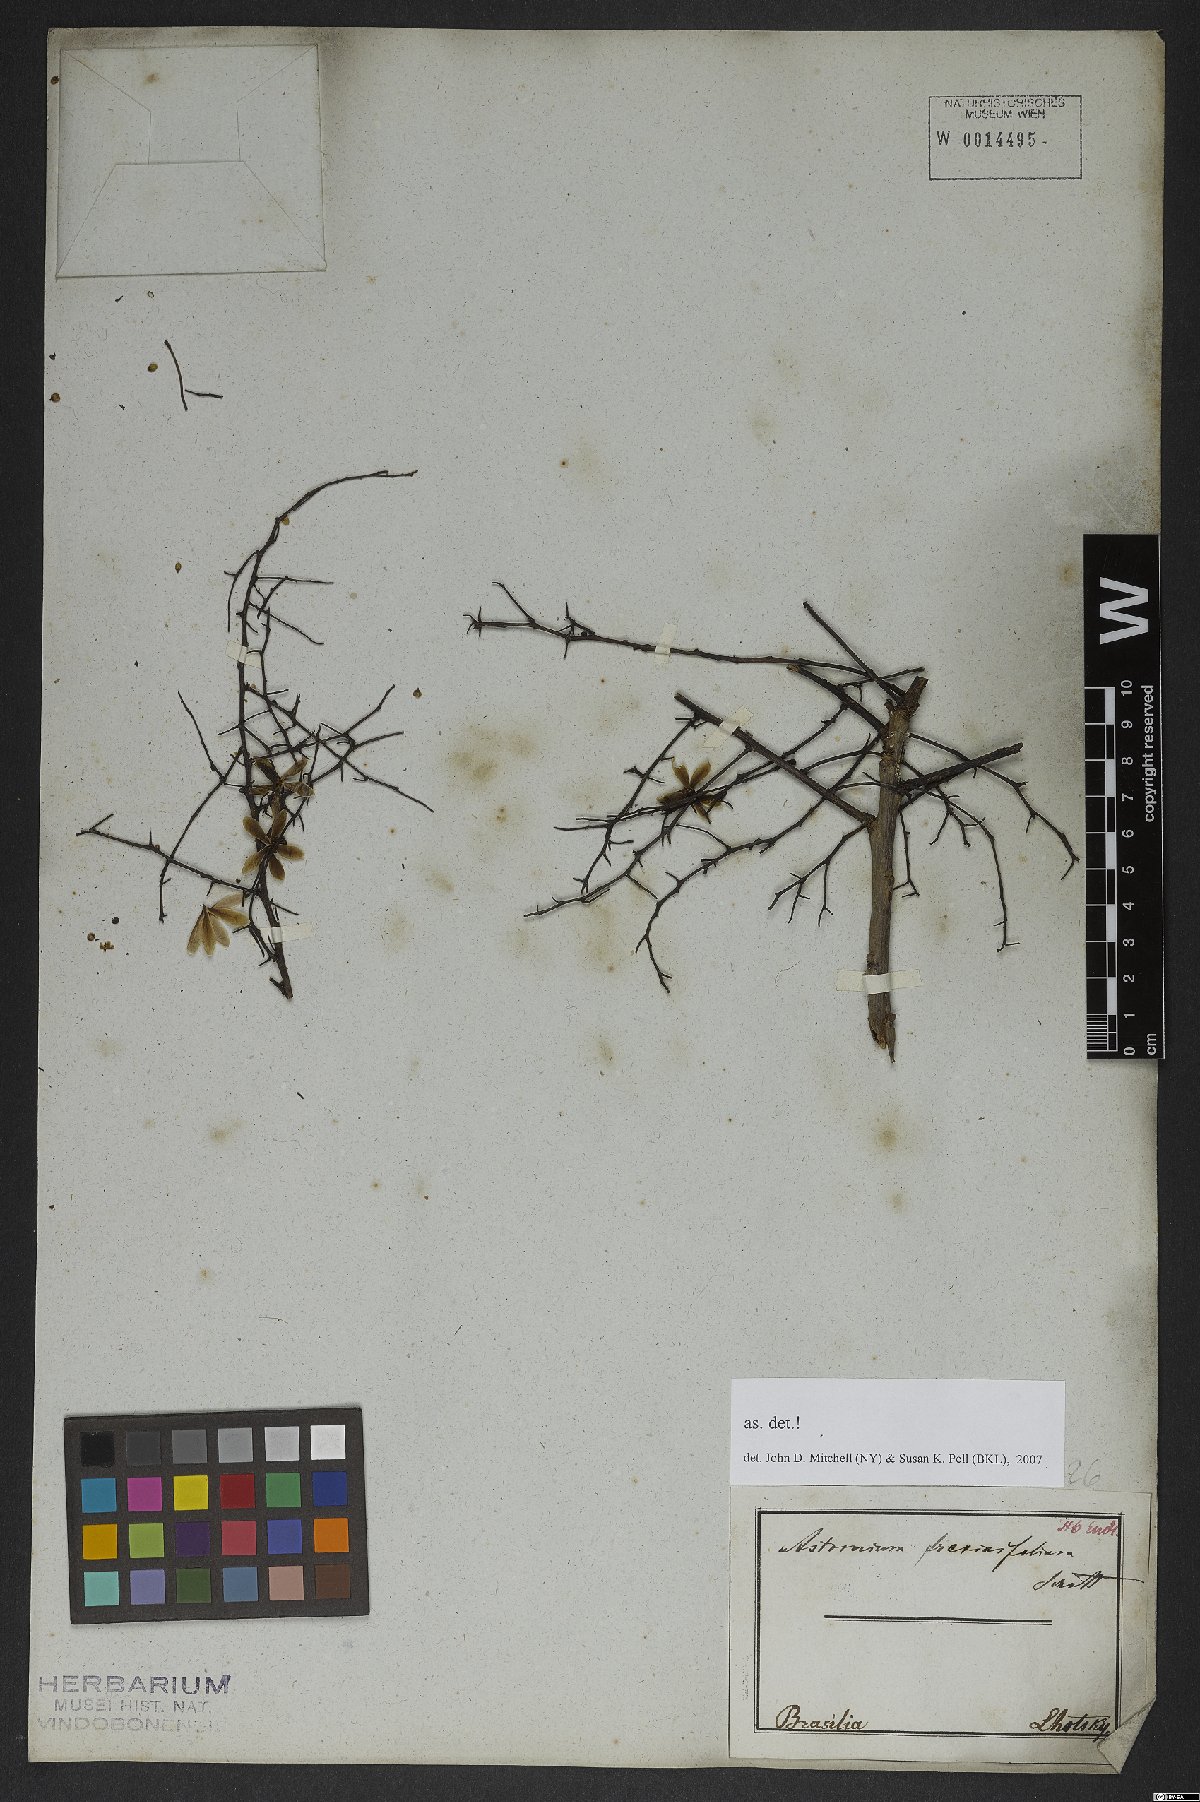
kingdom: Plantae
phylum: Tracheophyta
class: Magnoliopsida
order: Sapindales
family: Anacardiaceae
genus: Astronium
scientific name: Astronium fraxinifolium
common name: Tigerwood
